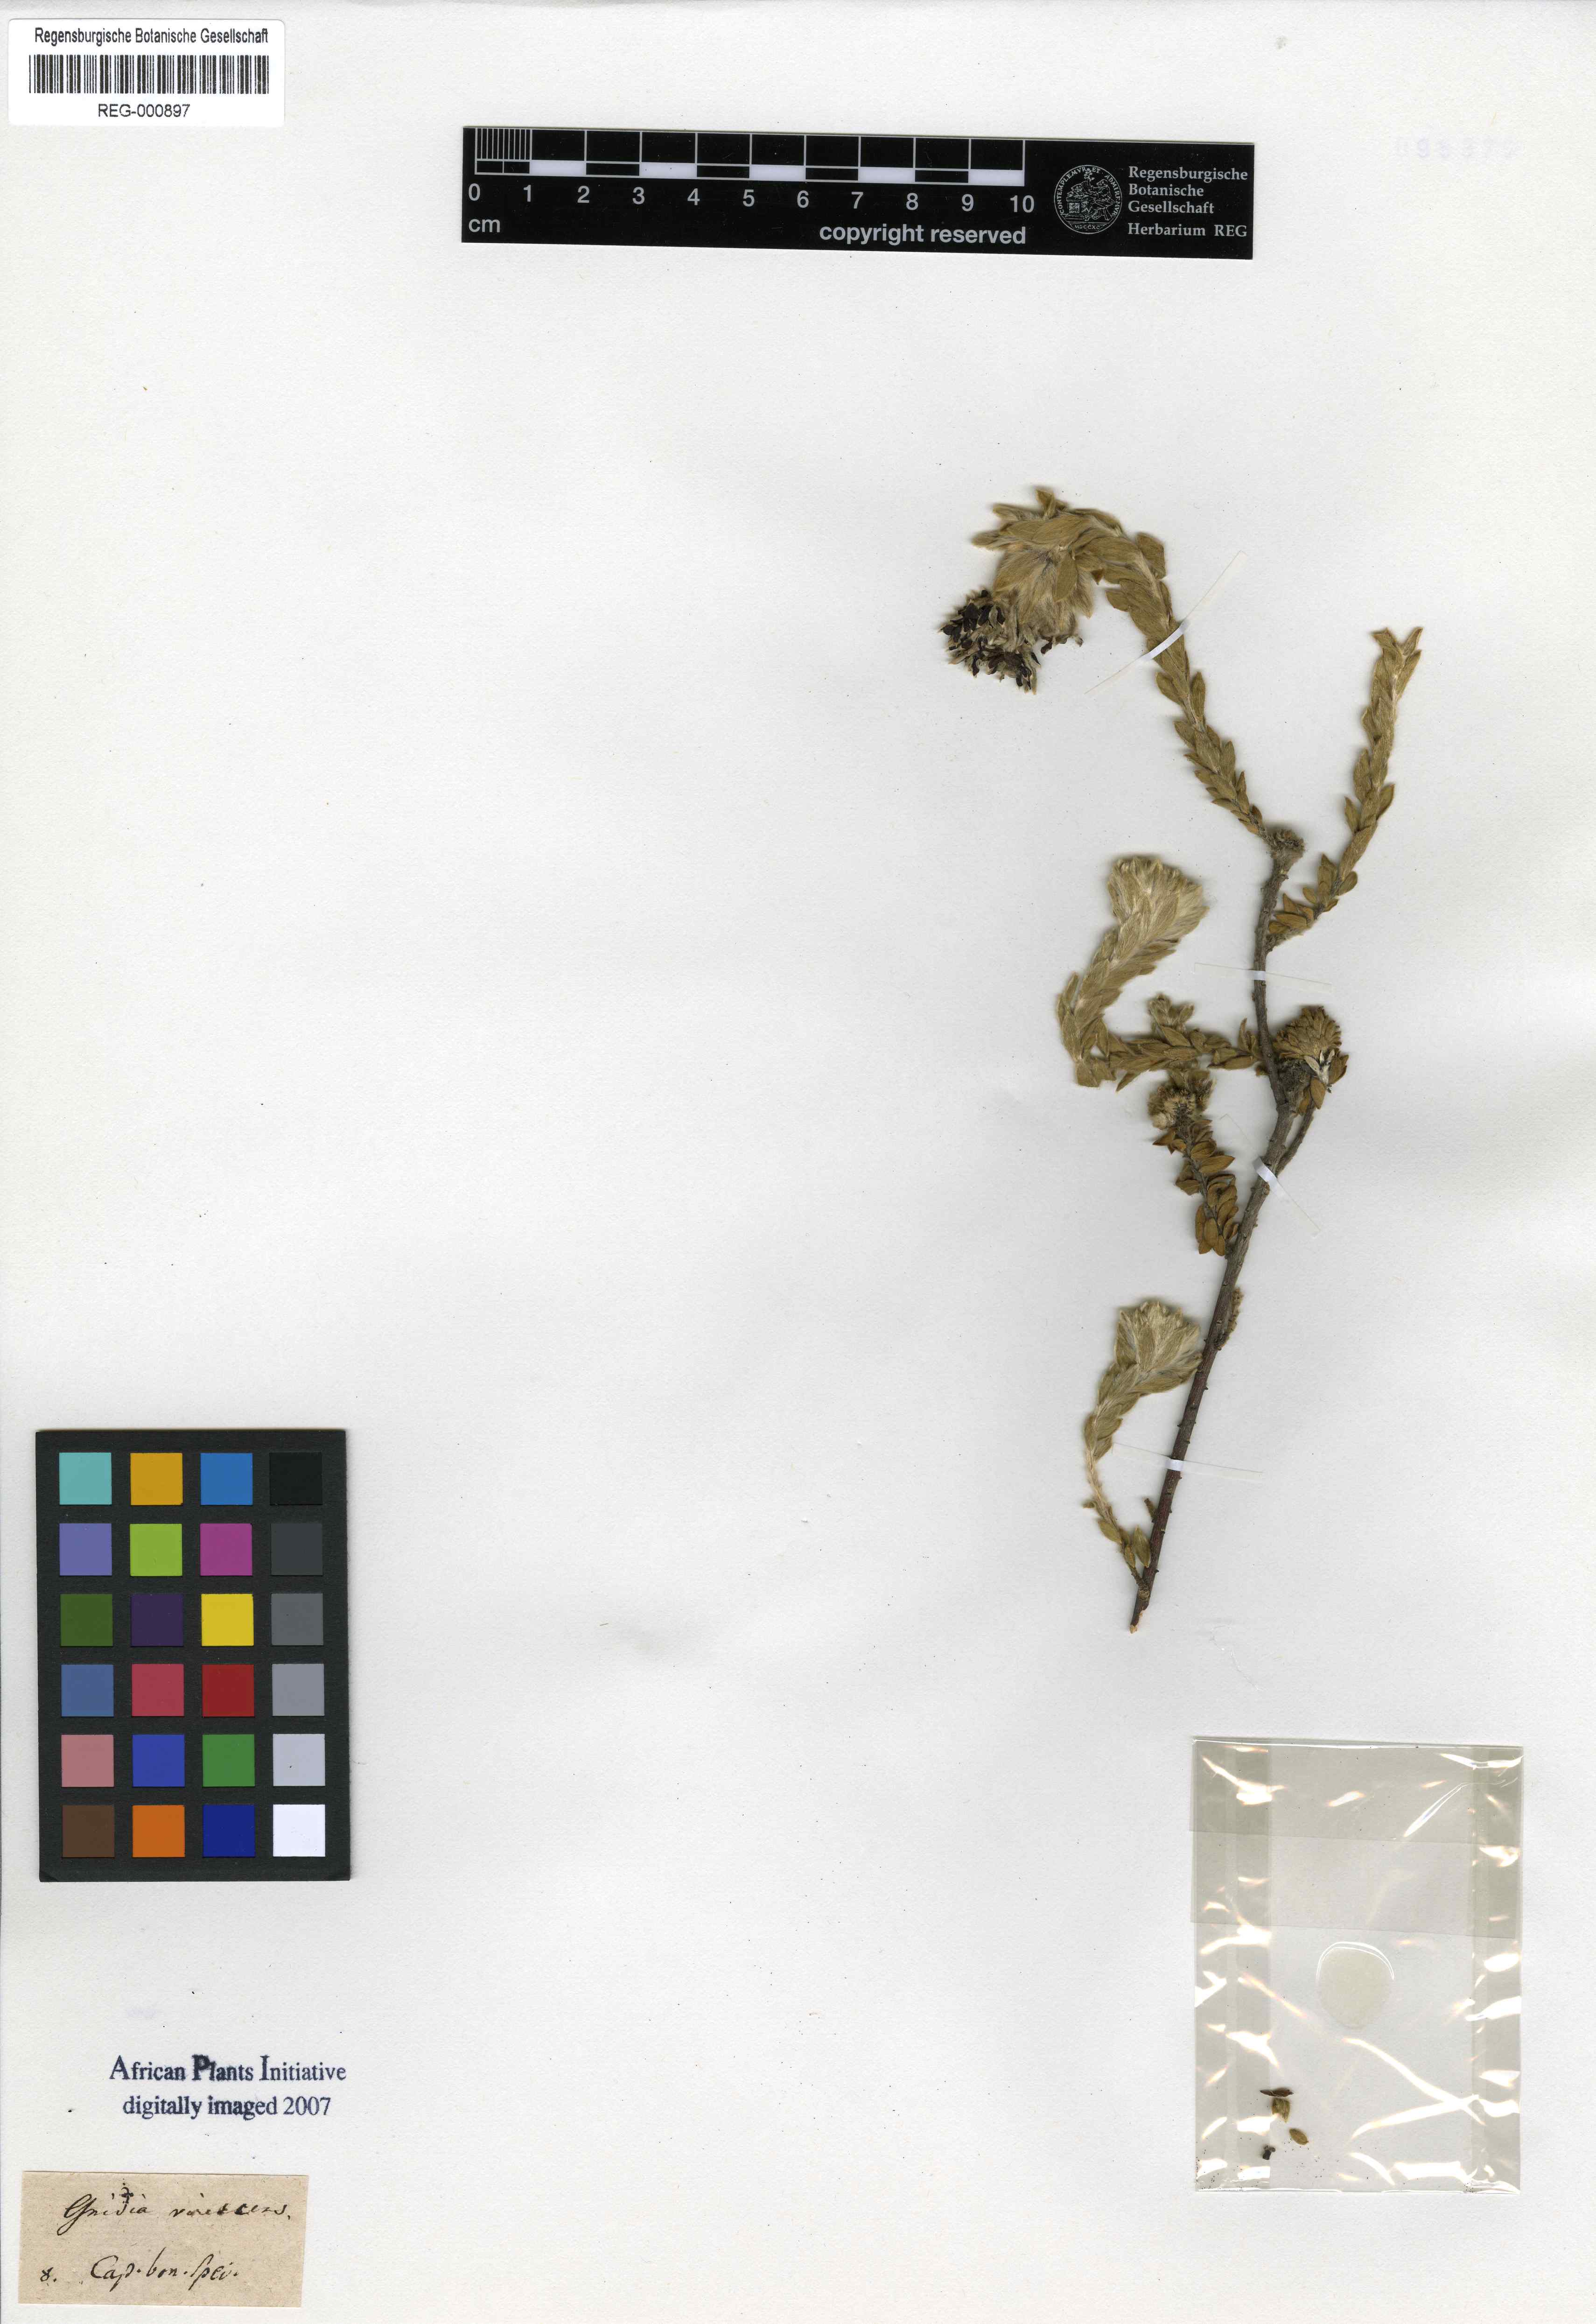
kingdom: Plantae
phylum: Tracheophyta
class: Magnoliopsida
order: Malvales
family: Thymelaeaceae
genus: Gnidia
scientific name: Gnidia virescens
